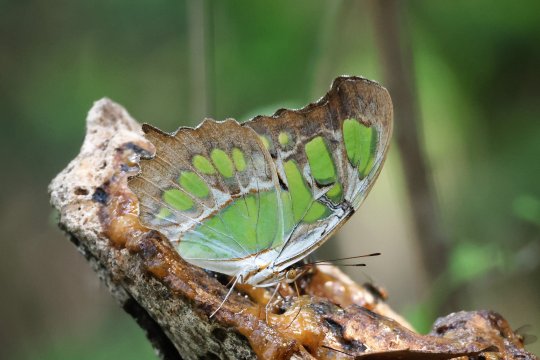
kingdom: Animalia
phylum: Arthropoda
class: Insecta
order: Lepidoptera
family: Nymphalidae
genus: Siproeta
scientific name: Siproeta stelenes
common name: Malachite
